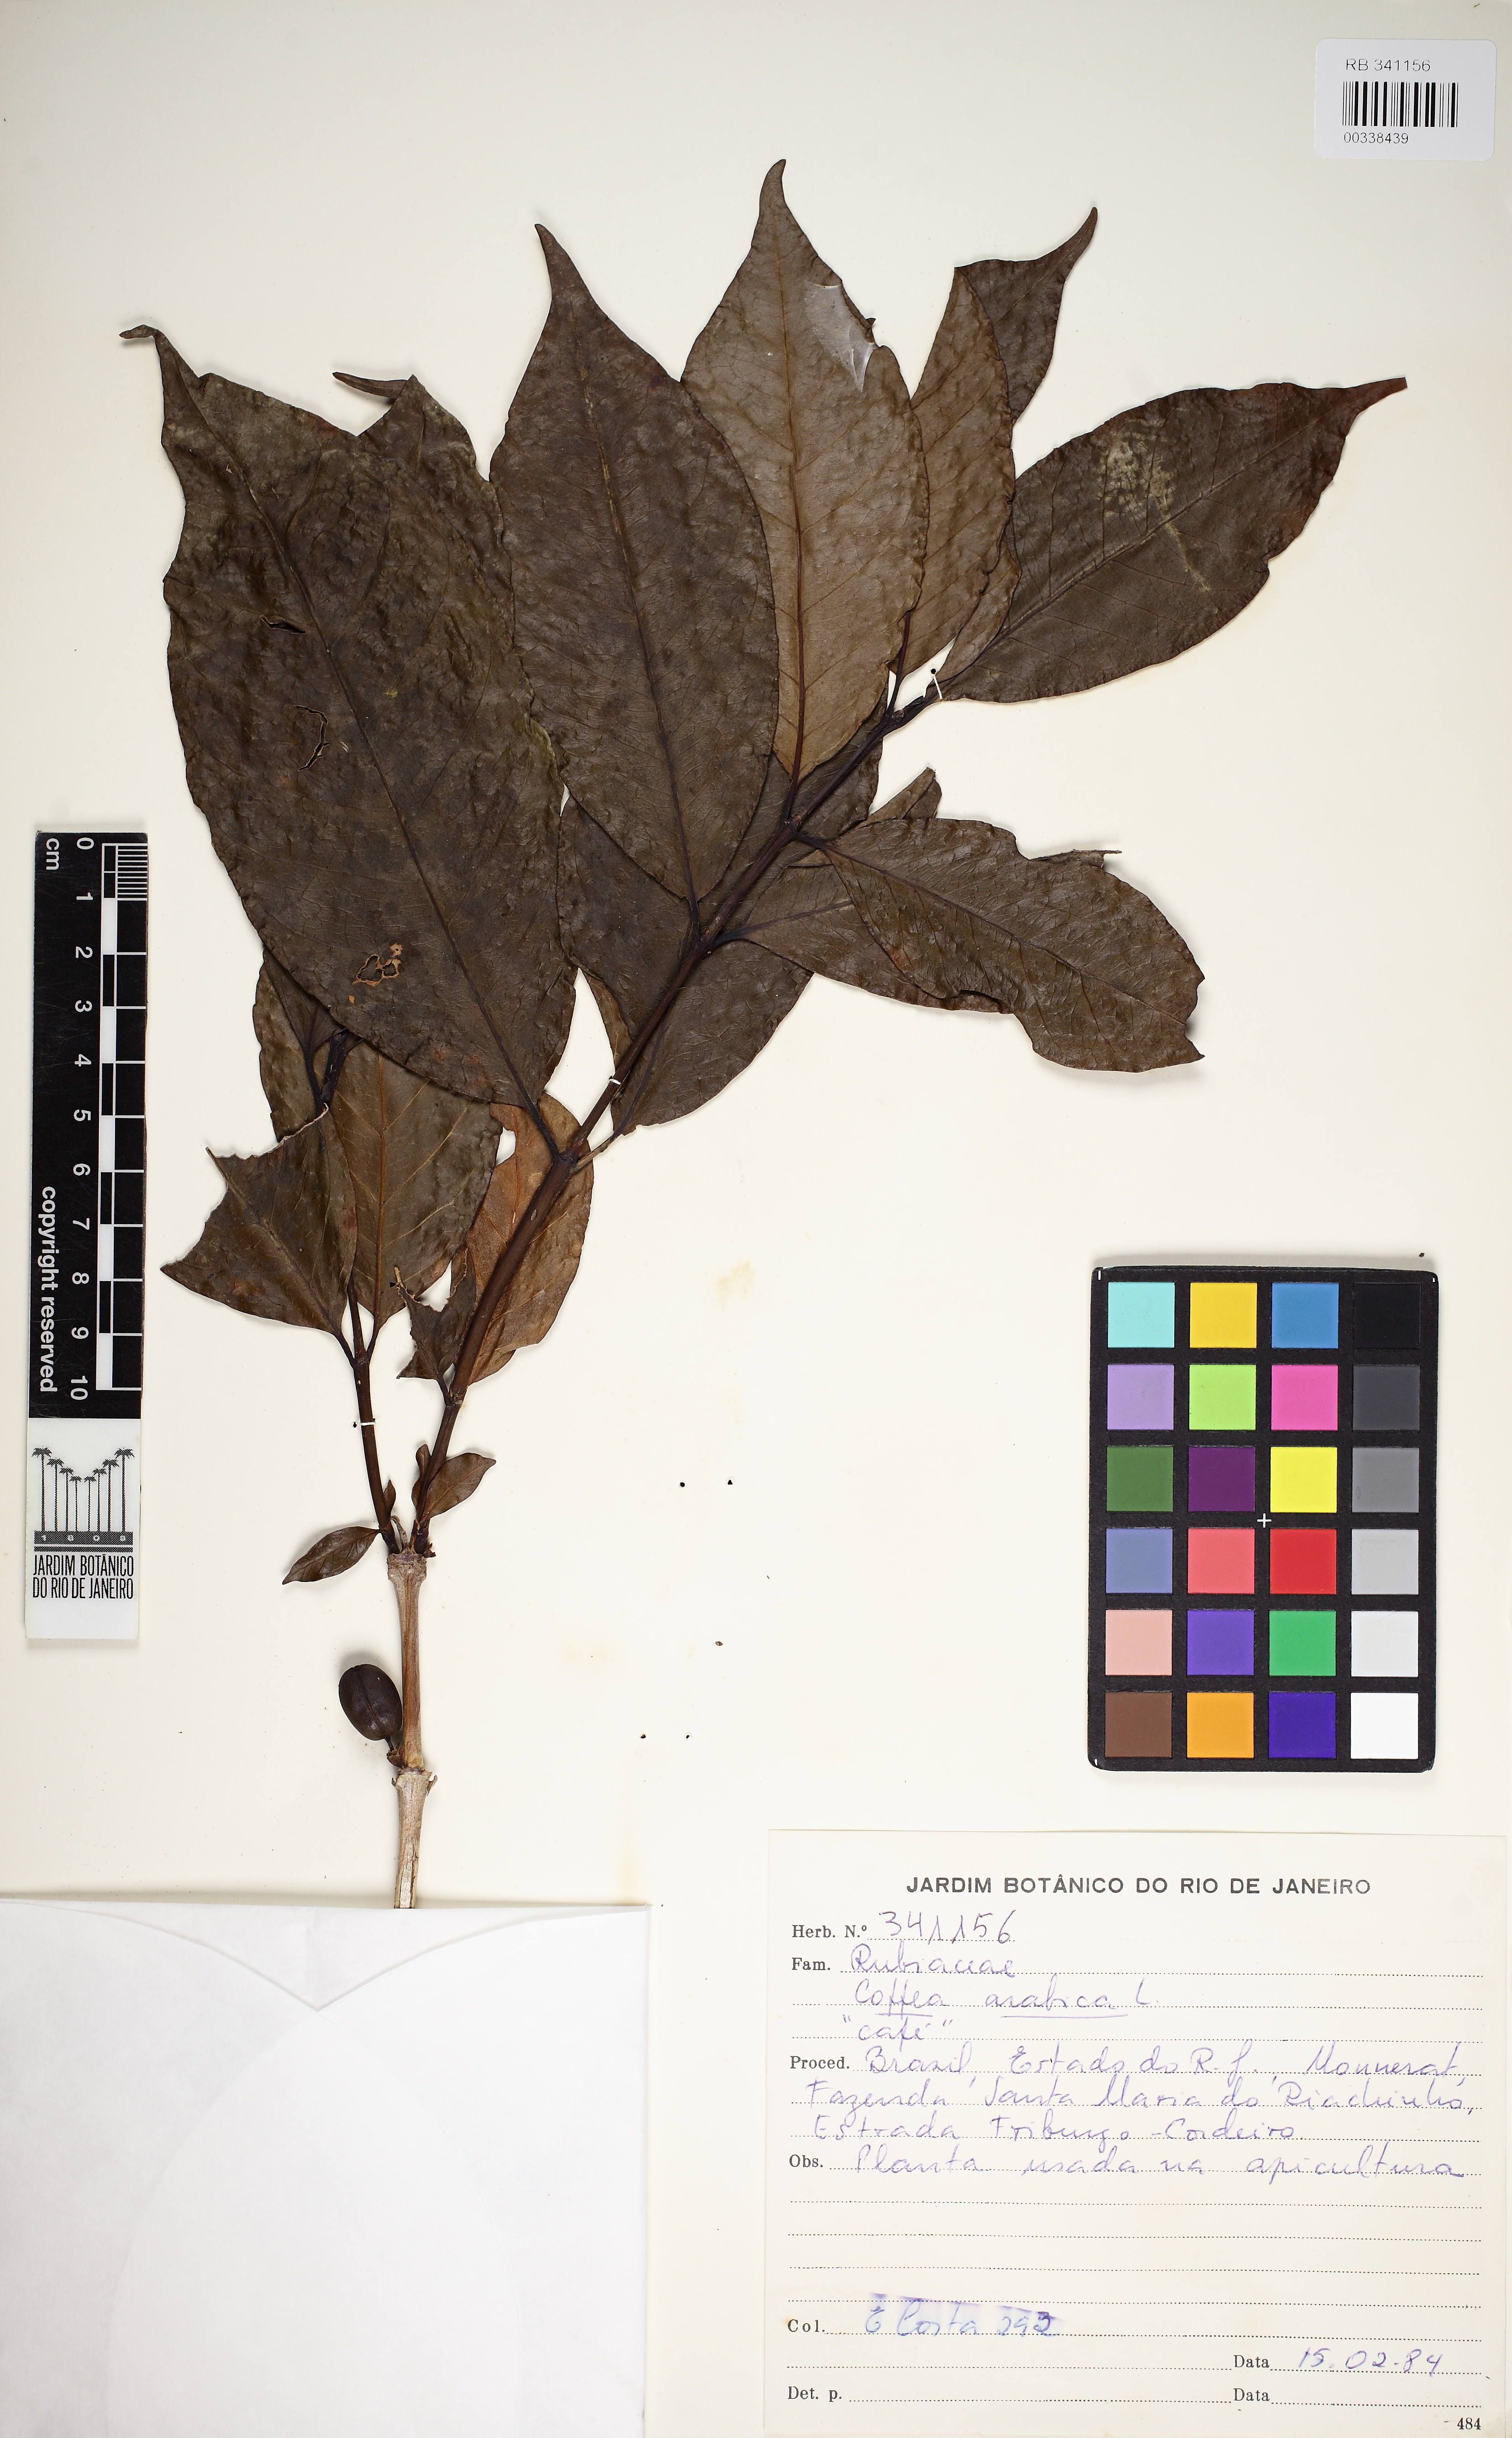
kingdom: Plantae
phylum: Tracheophyta
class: Magnoliopsida
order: Gentianales
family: Rubiaceae
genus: Coffea
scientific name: Coffea arabica
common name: Coffee
